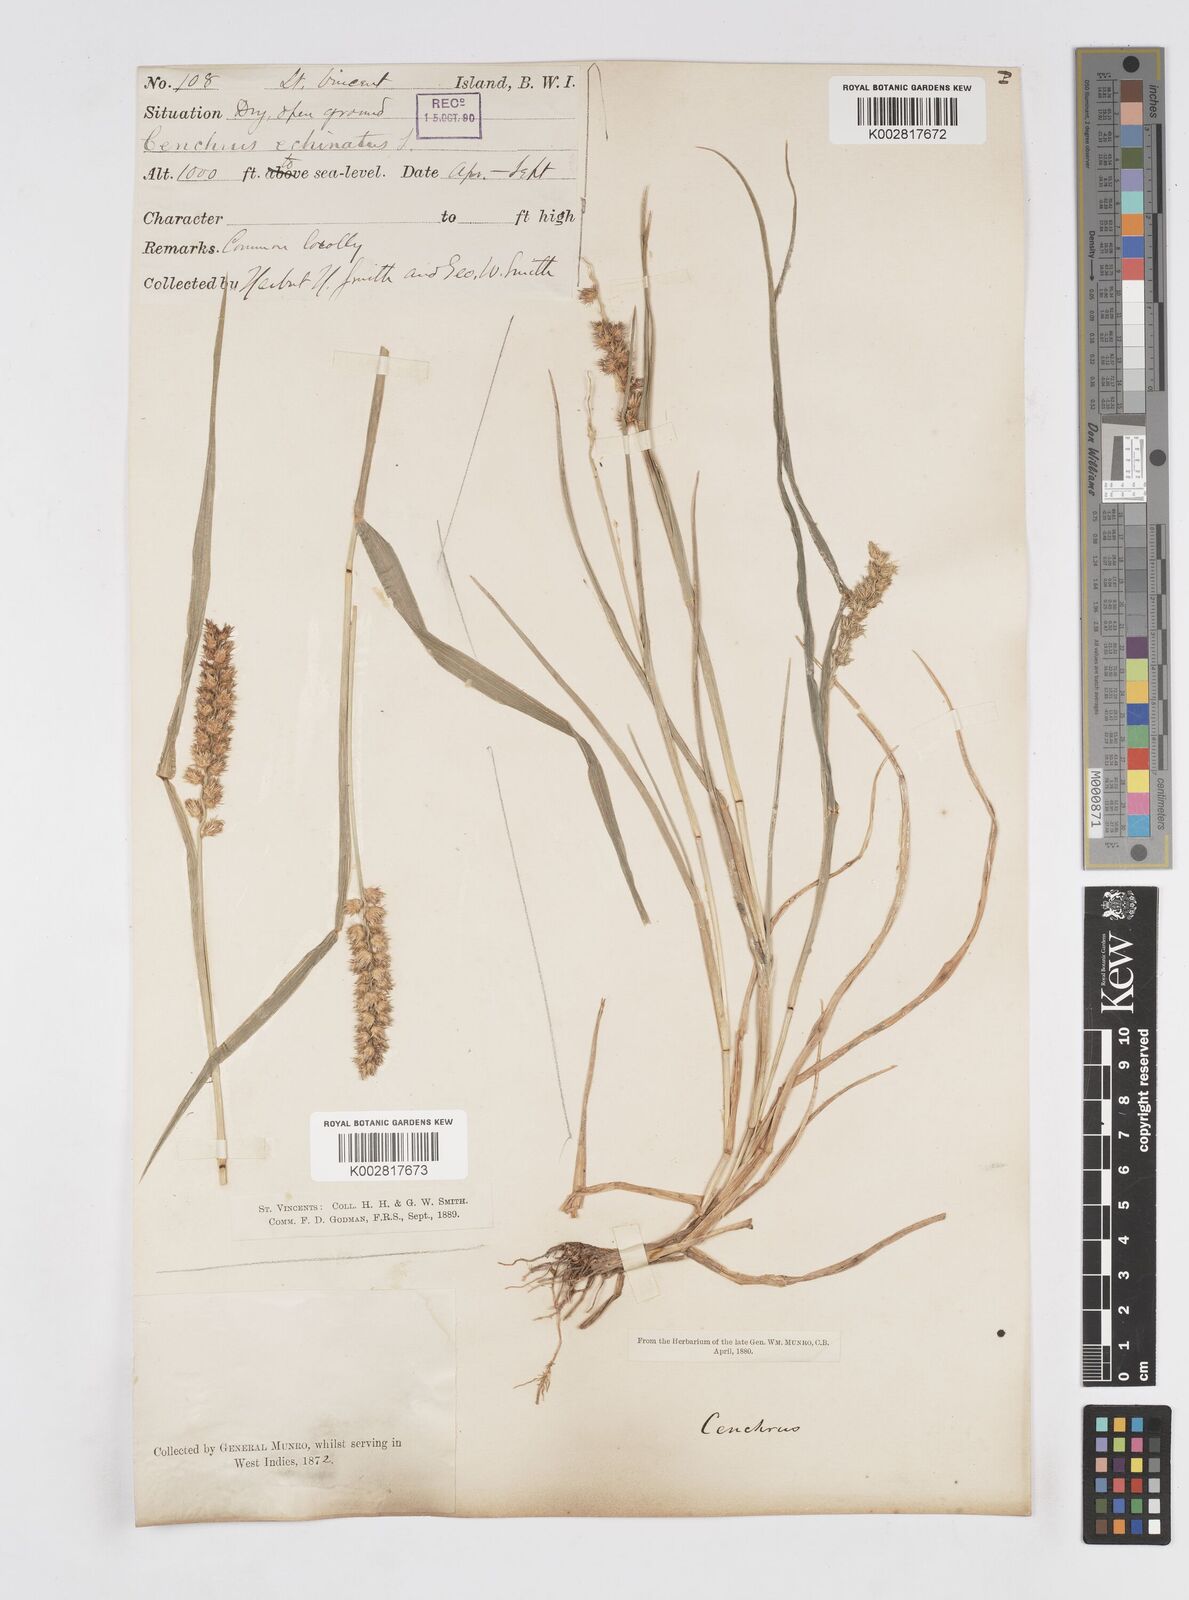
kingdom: Plantae
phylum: Tracheophyta
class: Liliopsida
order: Poales
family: Poaceae
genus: Cenchrus
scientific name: Cenchrus
